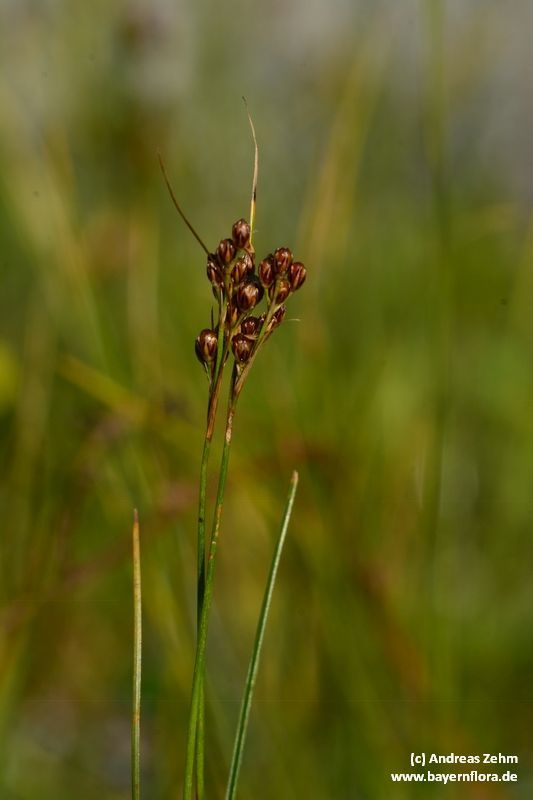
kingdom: Plantae
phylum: Tracheophyta
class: Liliopsida
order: Poales
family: Juncaceae
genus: Juncus
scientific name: Juncus compressus
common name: Round-fruited rush
